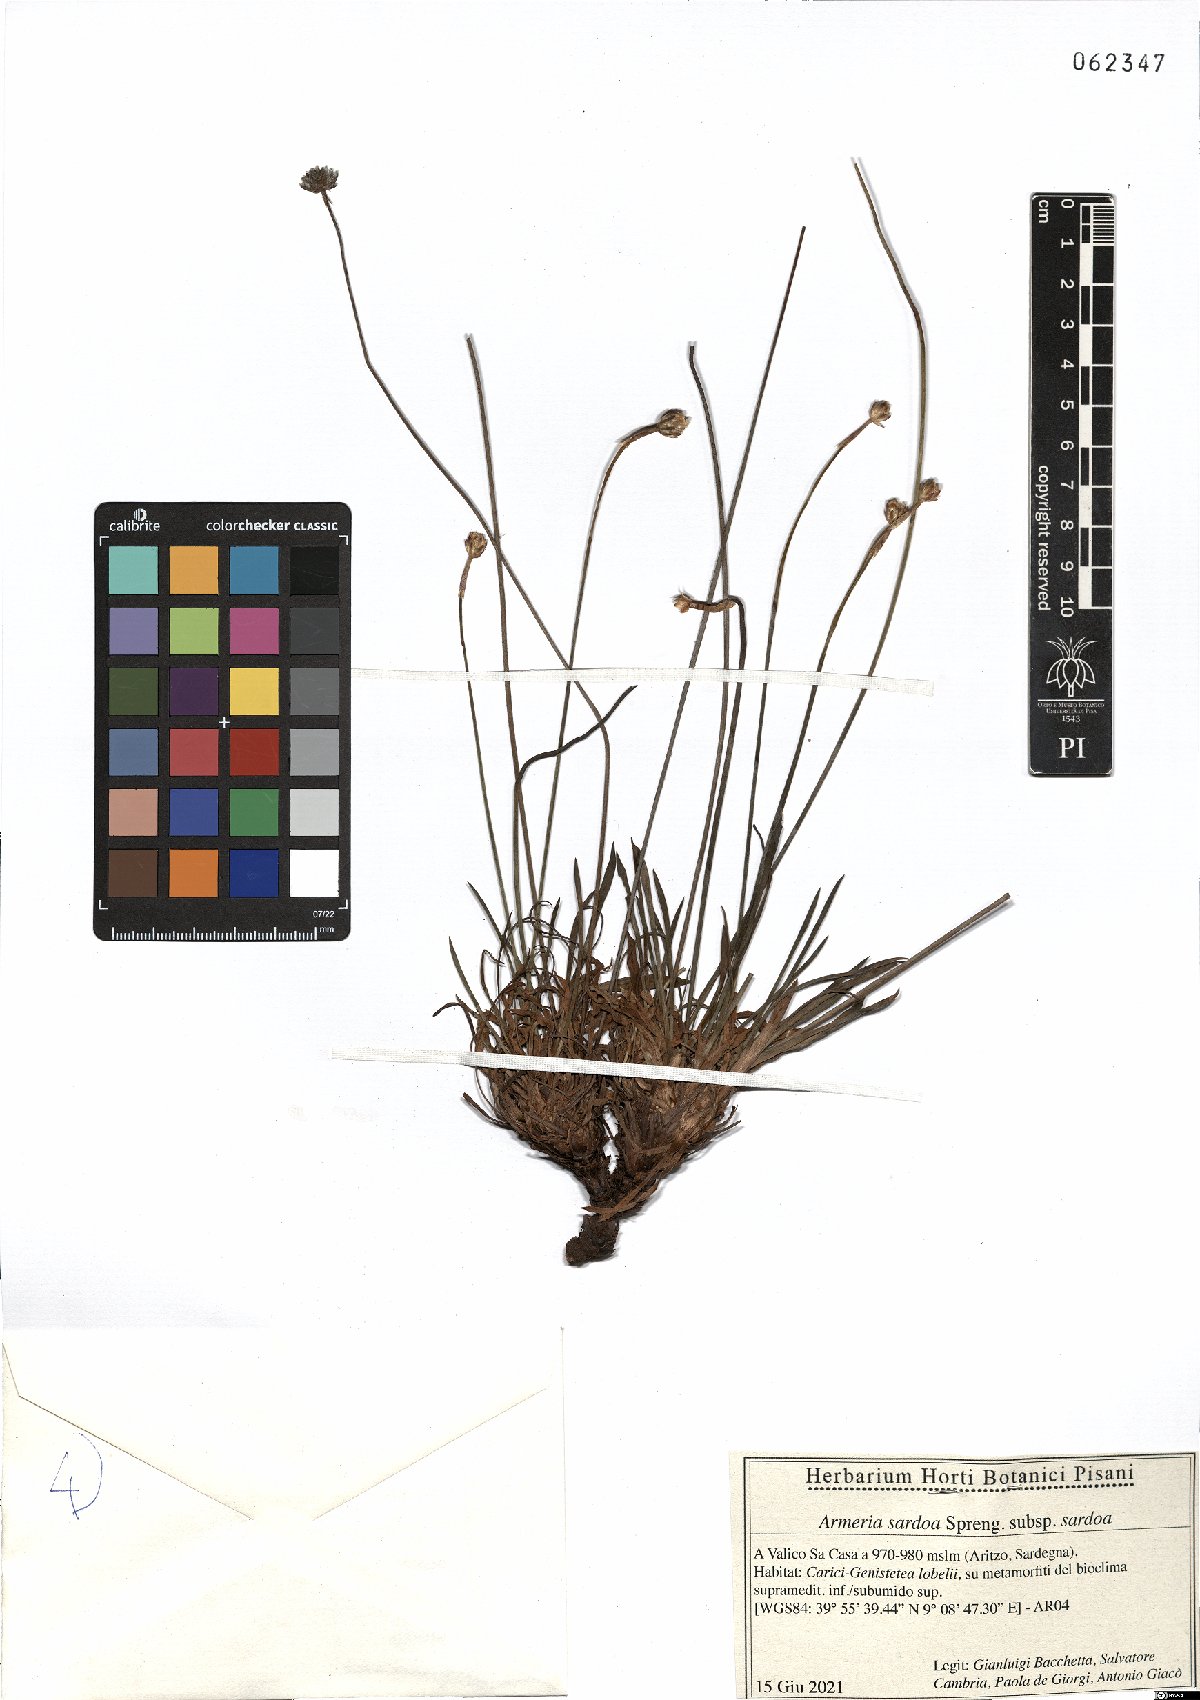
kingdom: Plantae
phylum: Tracheophyta
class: Magnoliopsida
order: Caryophyllales
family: Plumbaginaceae
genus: Armeria
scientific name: Armeria sardoa
